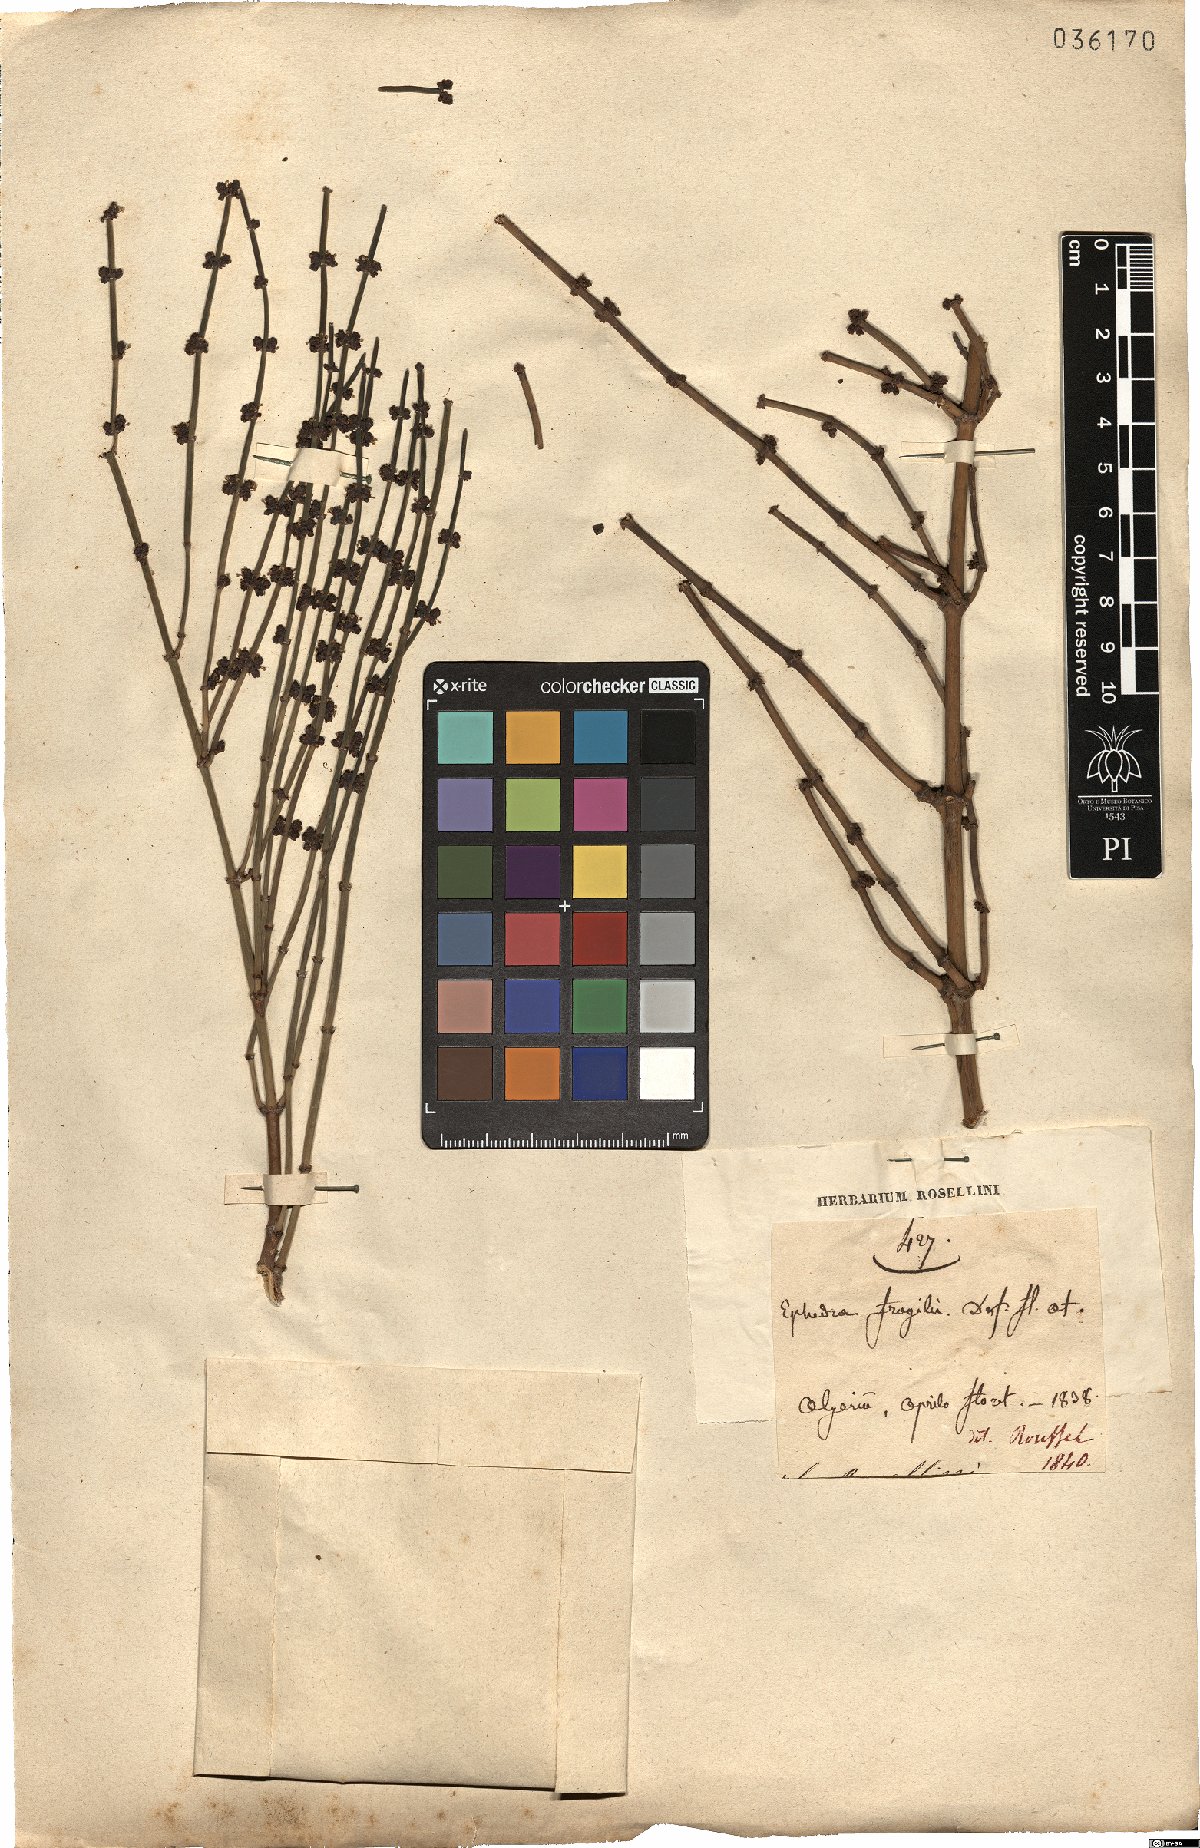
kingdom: Plantae
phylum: Tracheophyta
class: Gnetopsida
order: Ephedrales
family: Ephedraceae
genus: Ephedra
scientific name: Ephedra fragilis
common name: Joint pine
